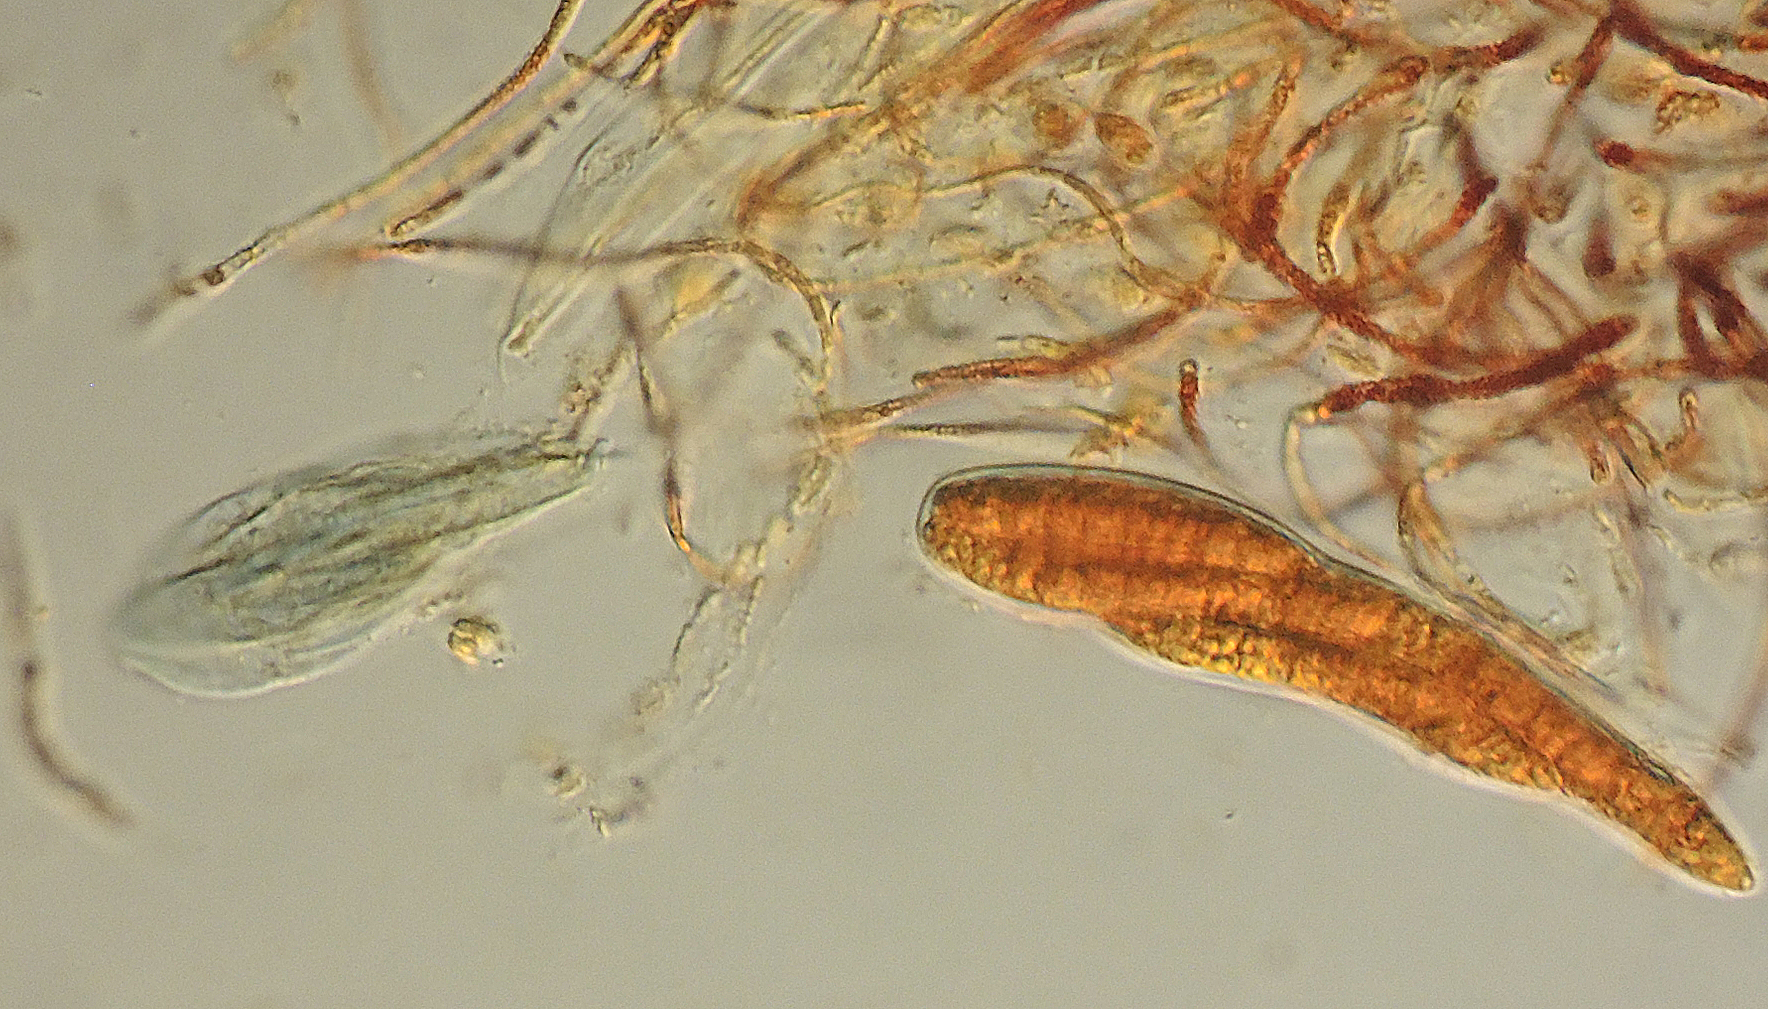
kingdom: Fungi
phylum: Ascomycota
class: Leotiomycetes
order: Helotiales
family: Helotiaceae
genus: Durella
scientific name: Durella connivens
